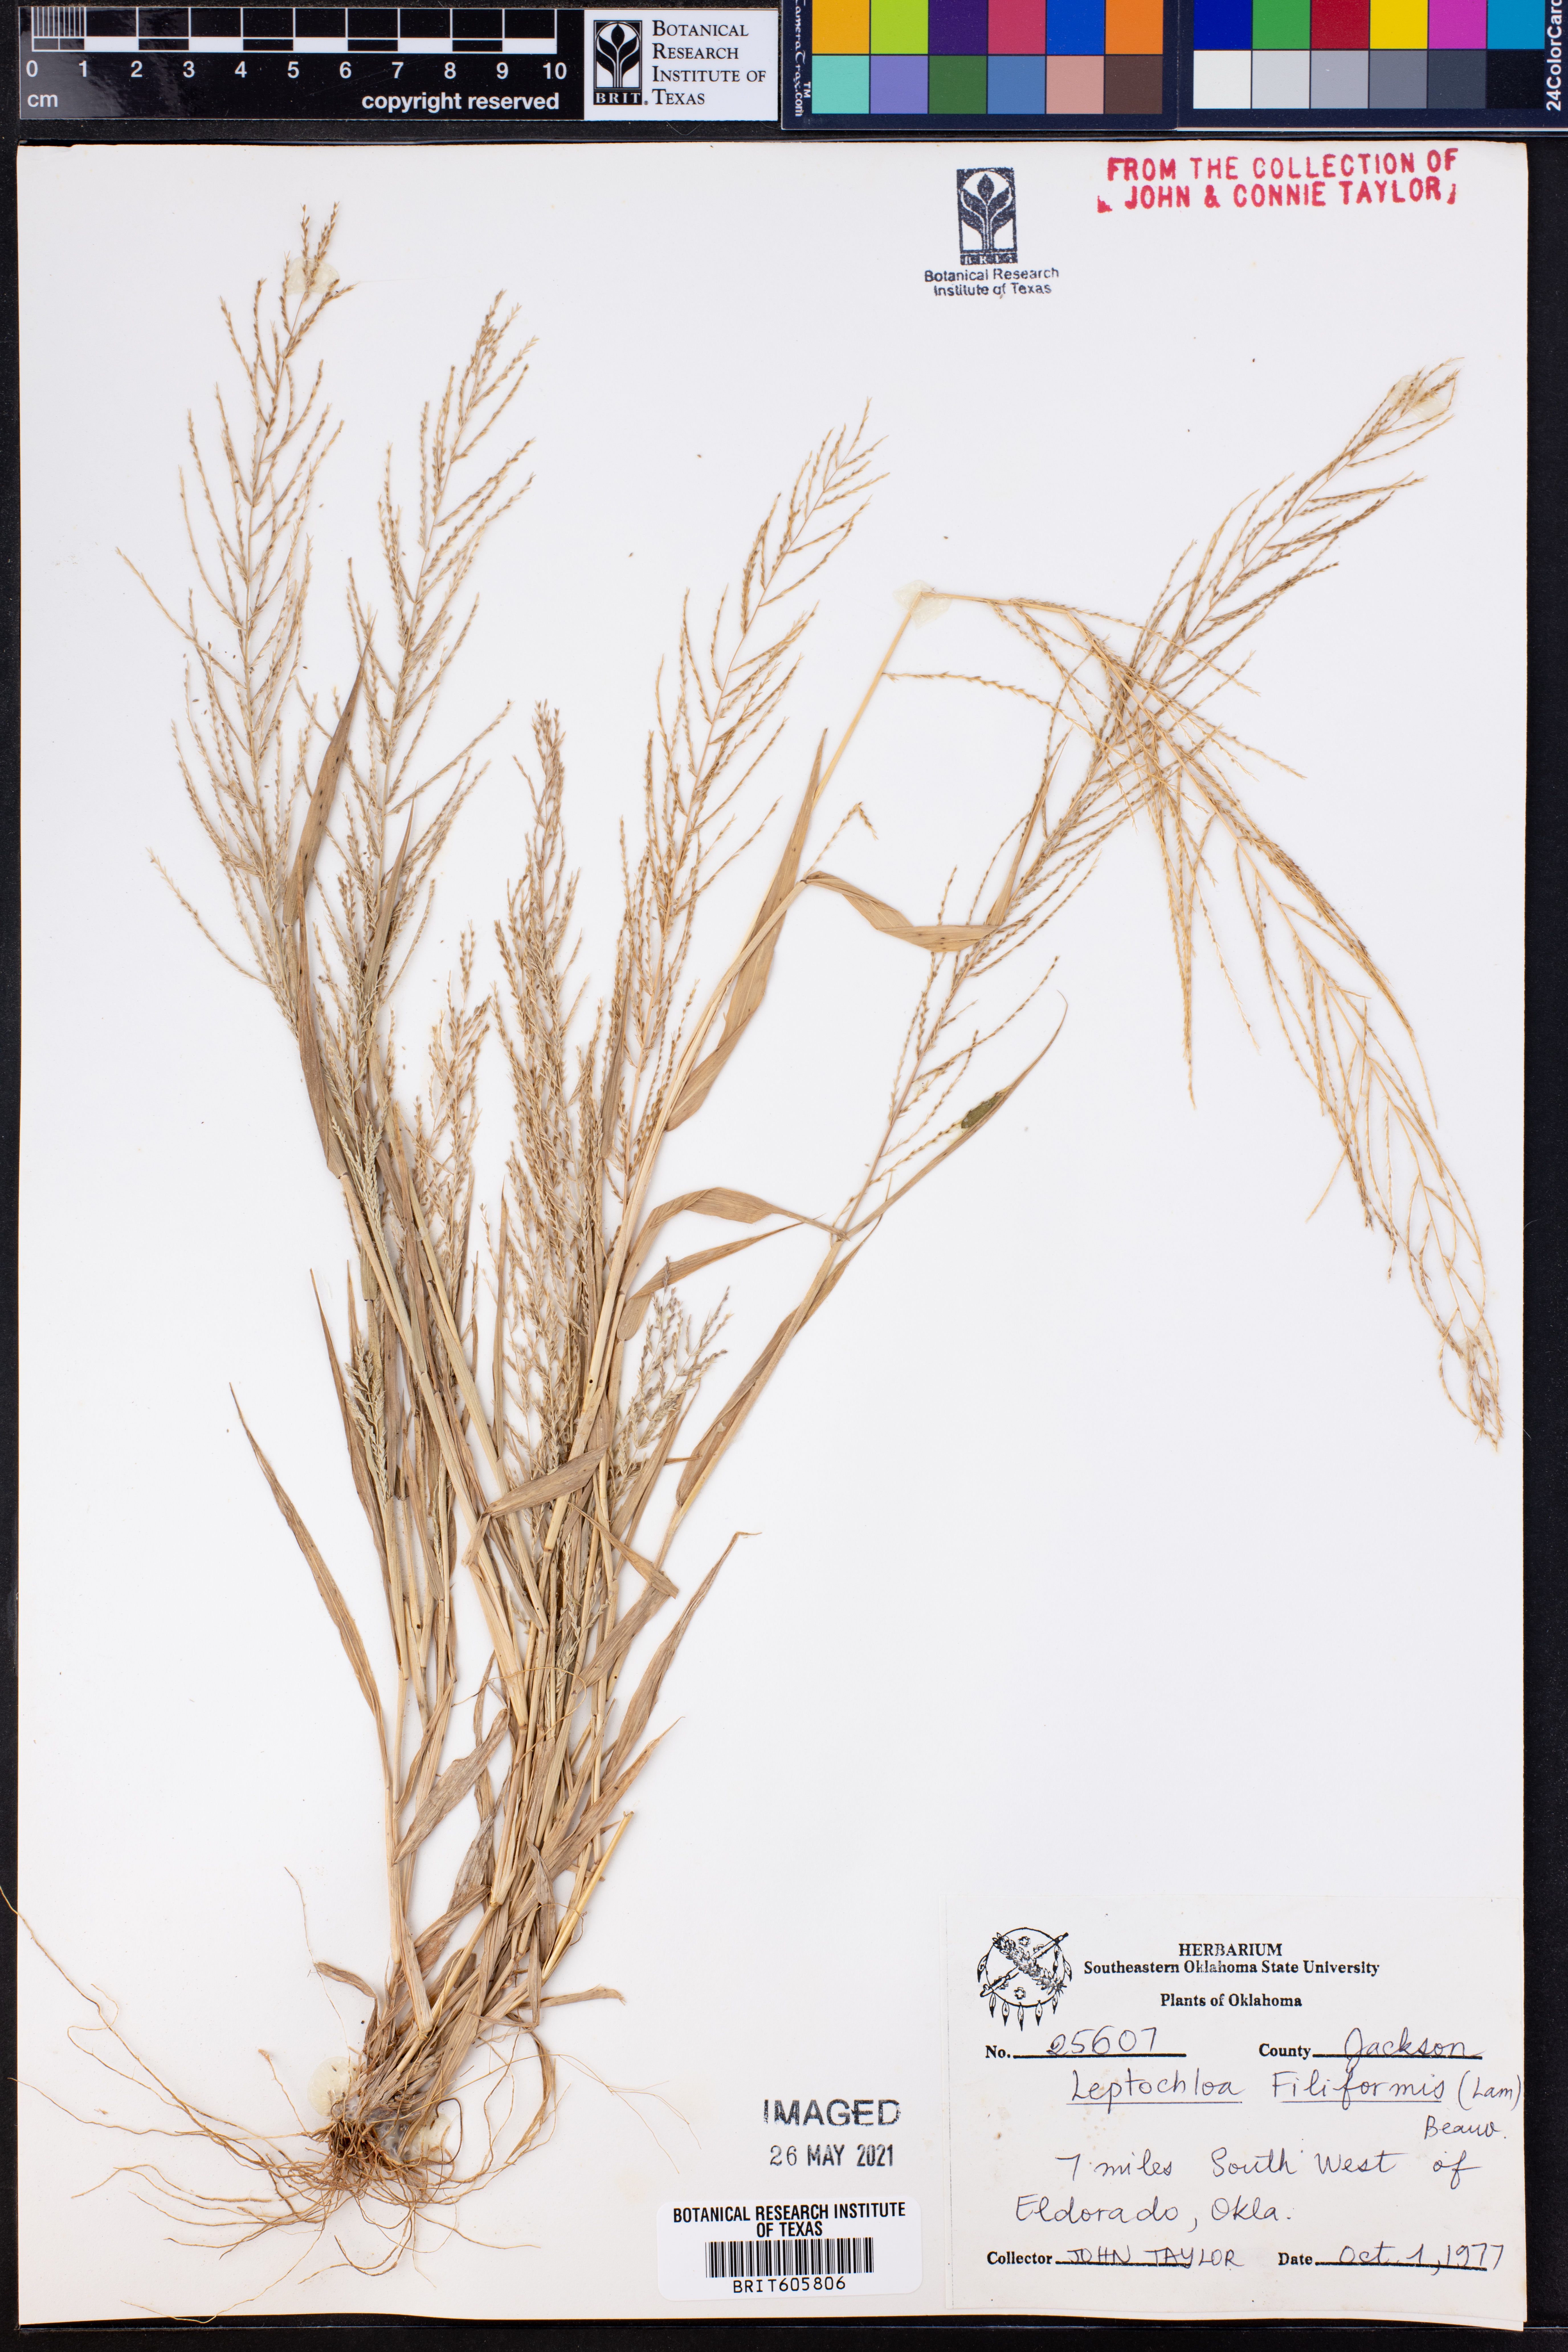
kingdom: Plantae
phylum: Tracheophyta
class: Liliopsida
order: Poales
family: Poaceae
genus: Leptochloa
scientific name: Leptochloa mucronata
